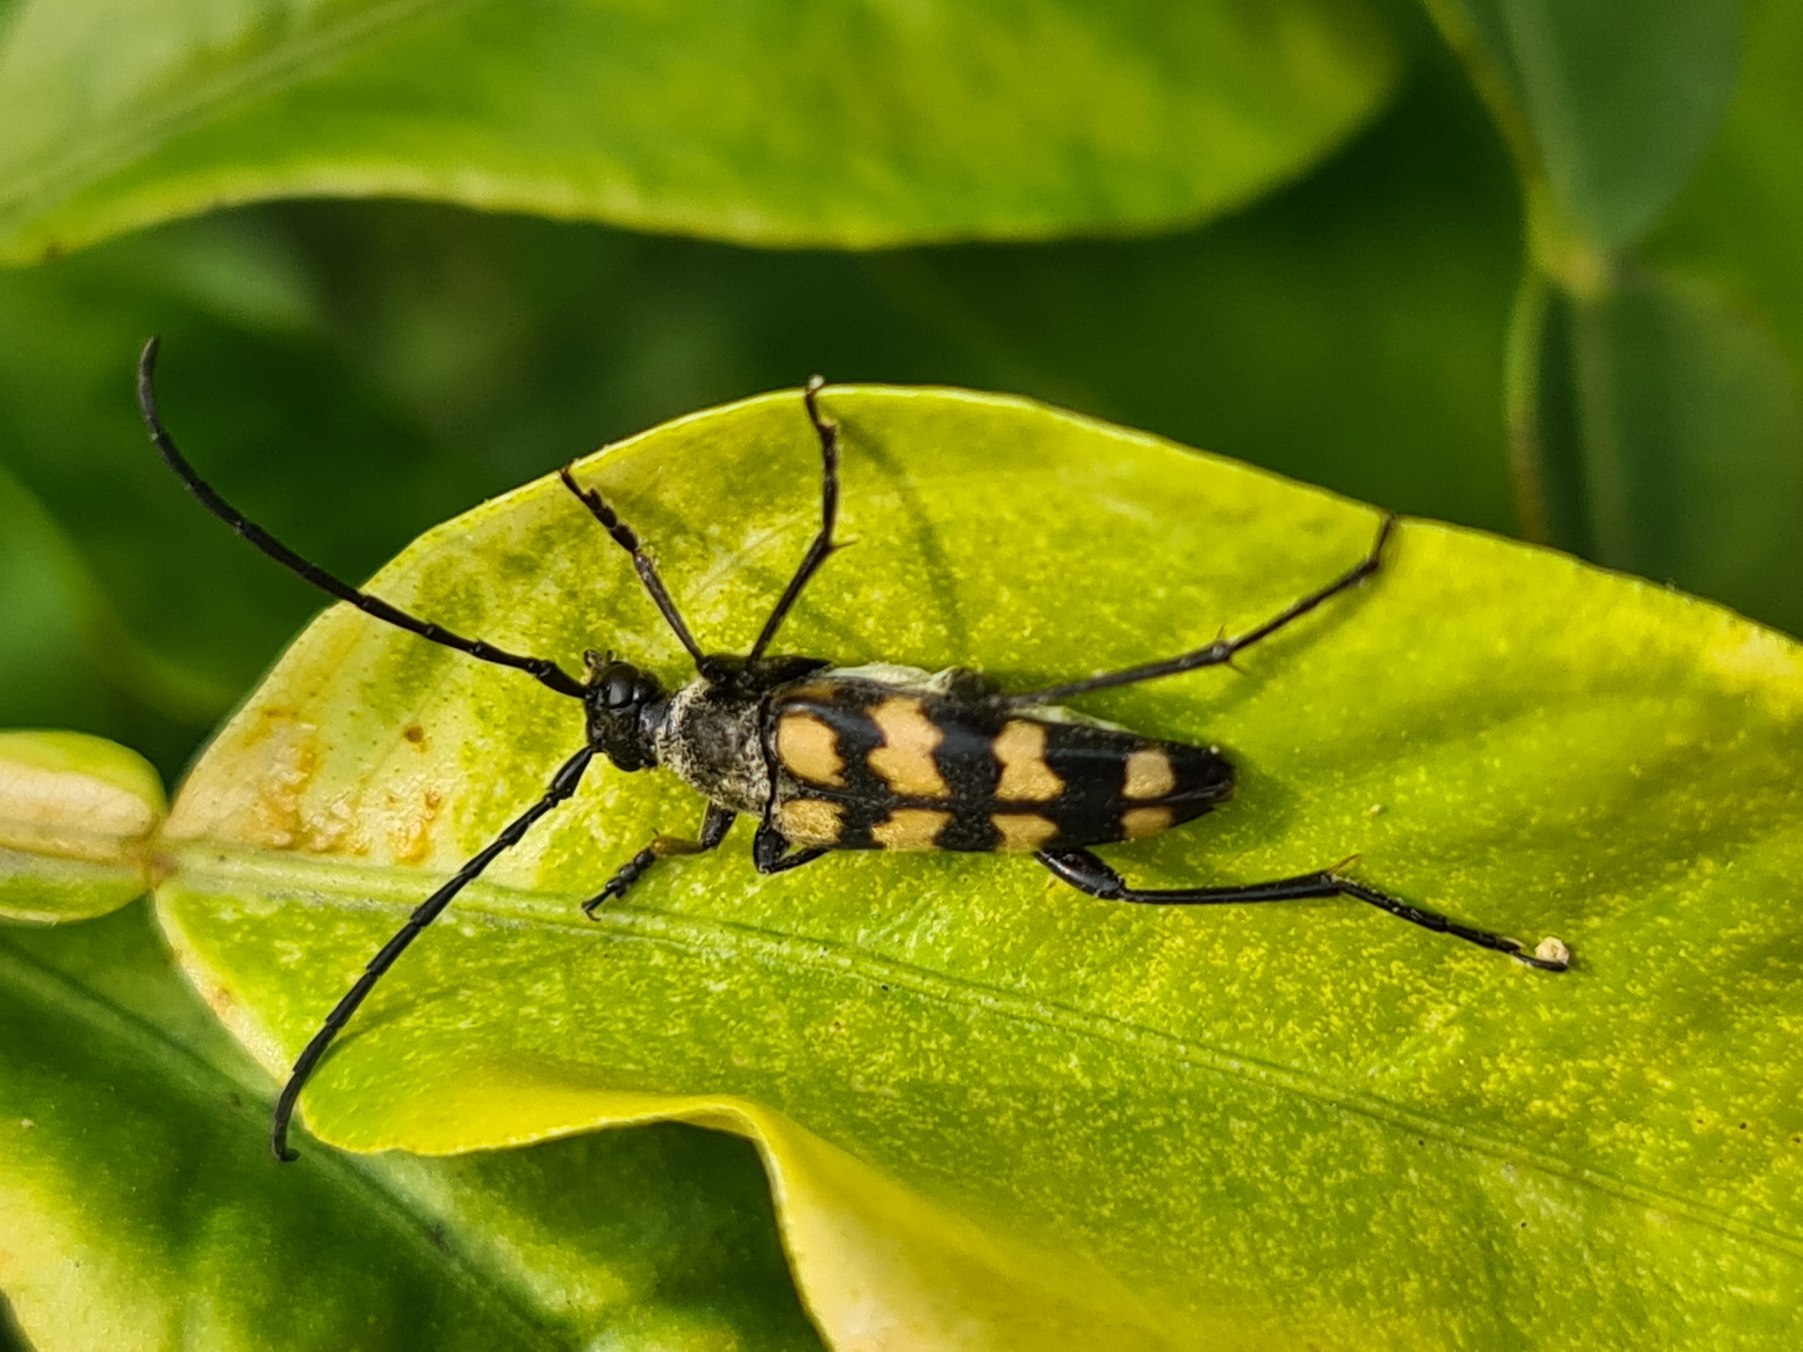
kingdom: Animalia
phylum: Arthropoda
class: Insecta
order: Coleoptera
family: Cerambycidae
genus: Leptura
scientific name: Leptura quadrifasciata
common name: Firebåndet blomsterbuk
